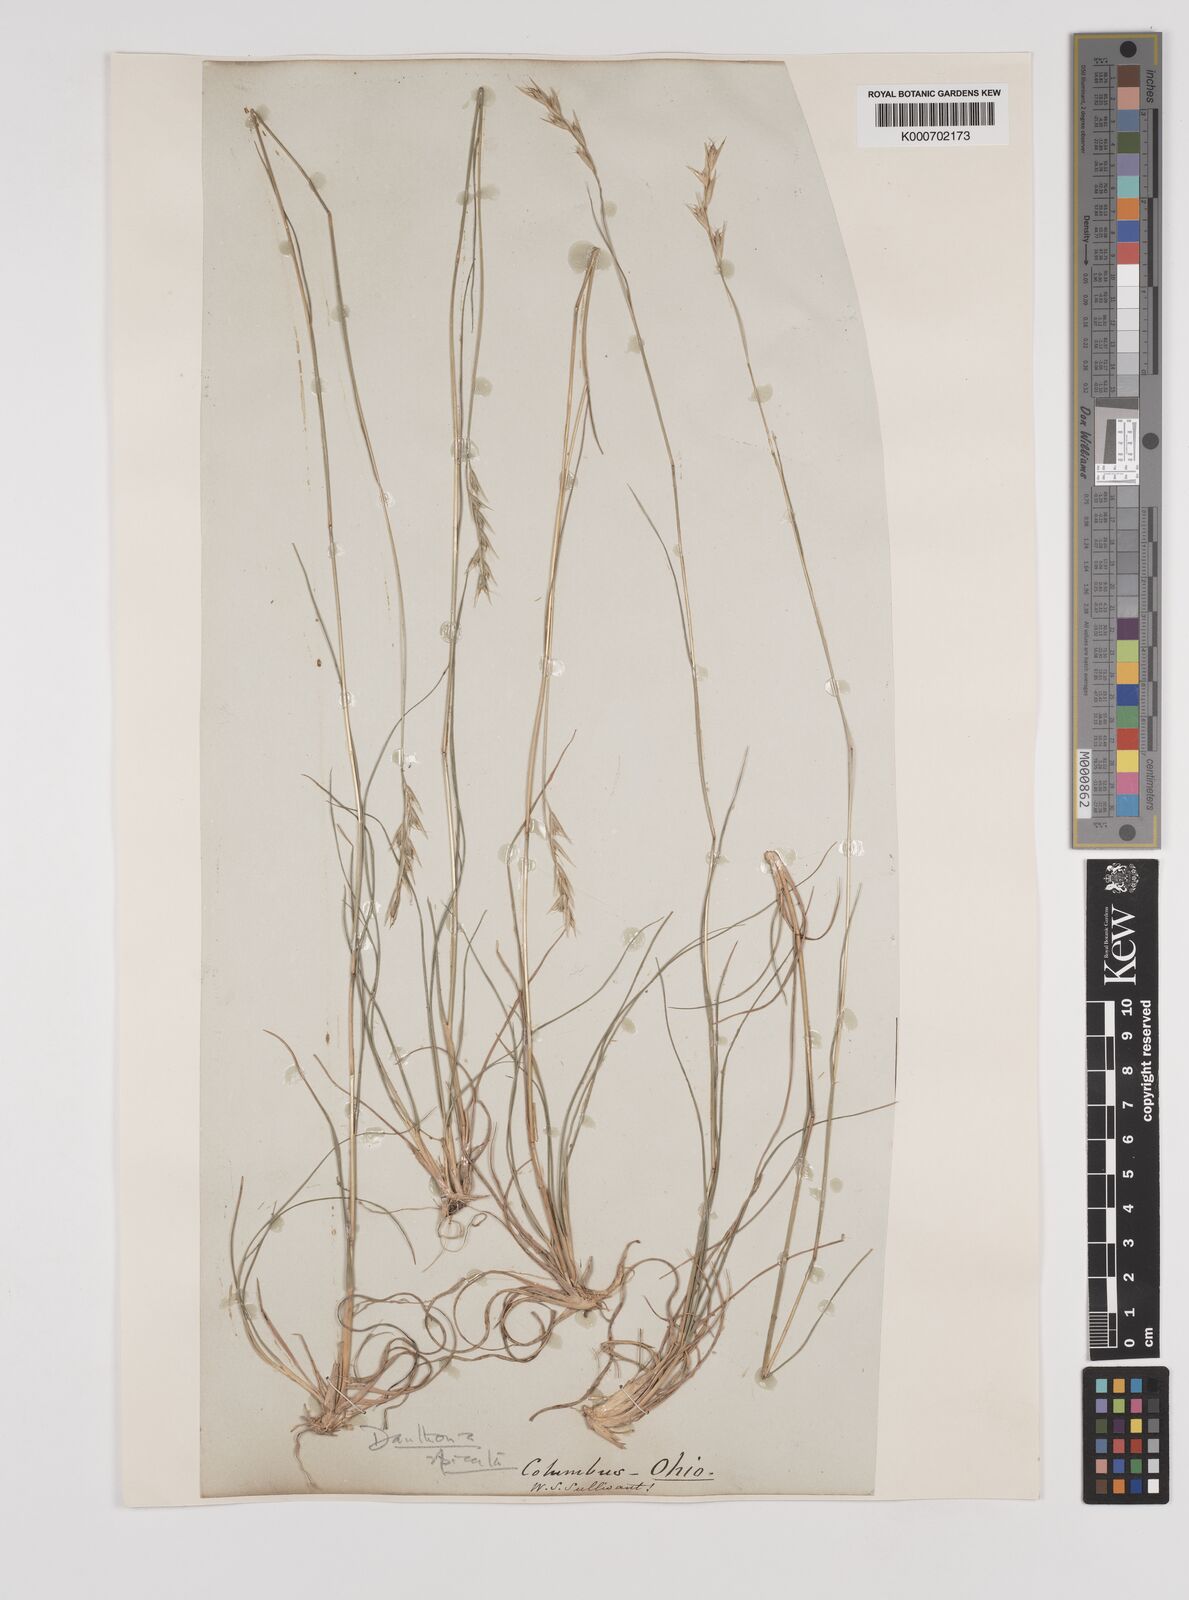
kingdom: Plantae
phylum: Tracheophyta
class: Liliopsida
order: Poales
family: Poaceae
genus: Danthonia
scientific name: Danthonia spicata
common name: Common wild oatgrass
